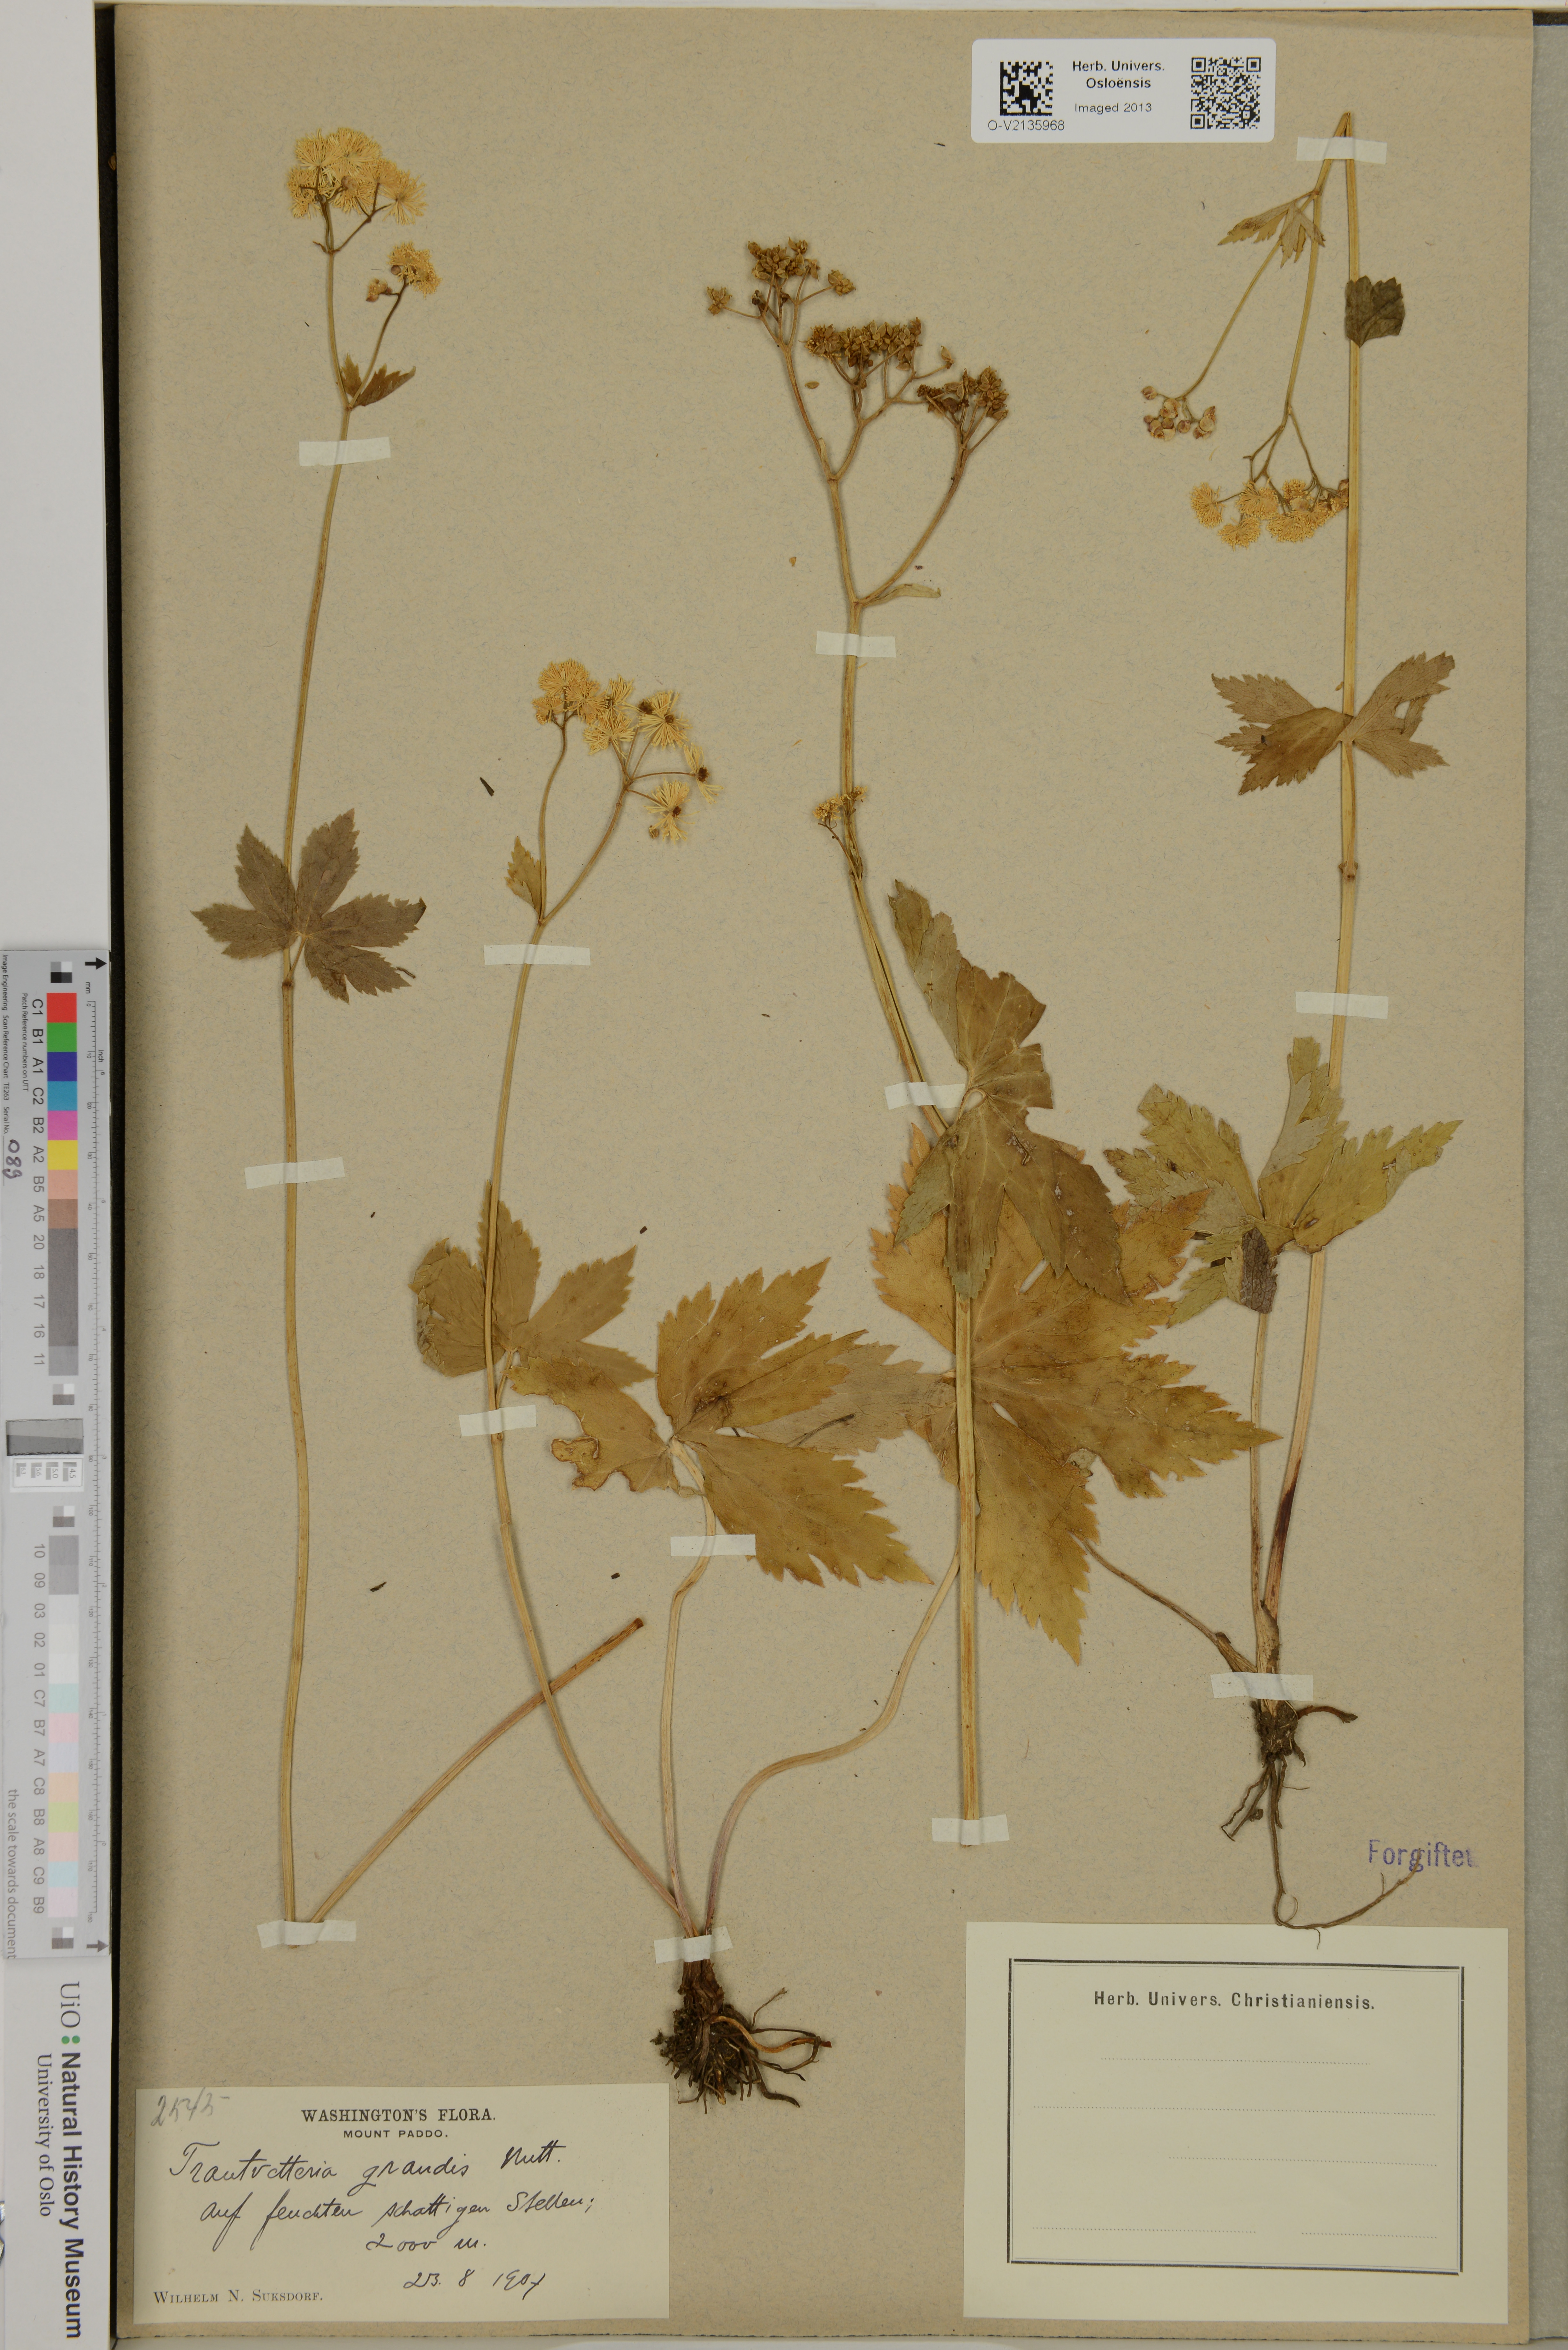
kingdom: Plantae
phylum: Tracheophyta
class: Magnoliopsida
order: Ranunculales
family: Ranunculaceae
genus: Trautvetteria
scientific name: Trautvetteria carolinensis
